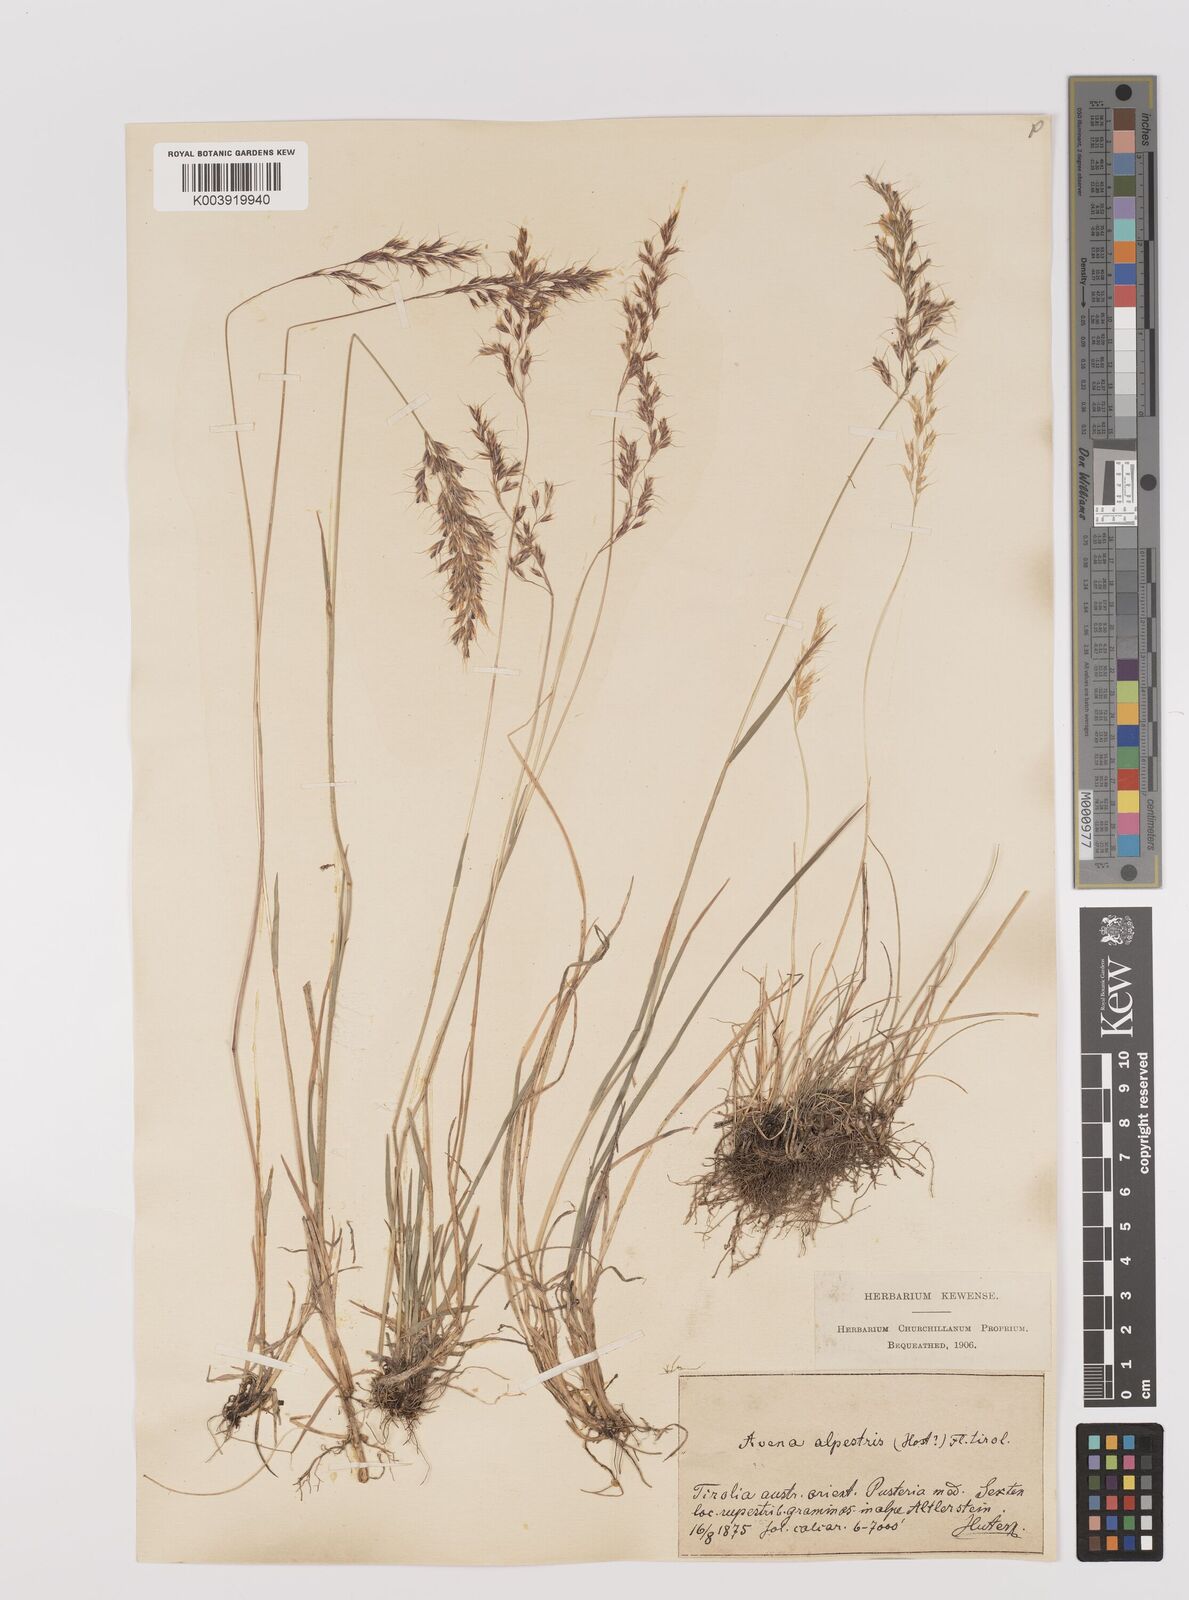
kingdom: Plantae
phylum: Tracheophyta
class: Liliopsida
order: Poales
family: Poaceae
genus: Trisetum
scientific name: Trisetum alpestre
